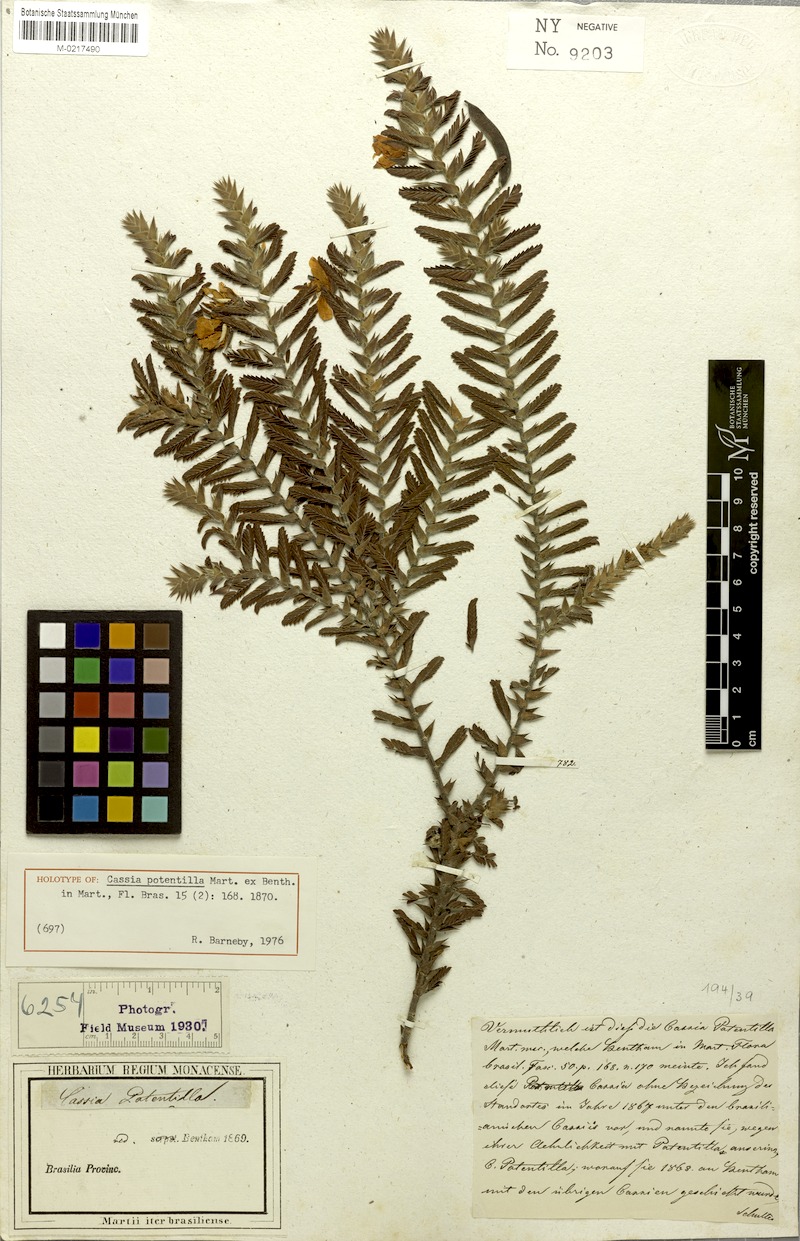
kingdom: Plantae
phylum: Tracheophyta
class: Magnoliopsida
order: Fabales
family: Fabaceae
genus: Chamaecrista
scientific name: Chamaecrista potentilla
